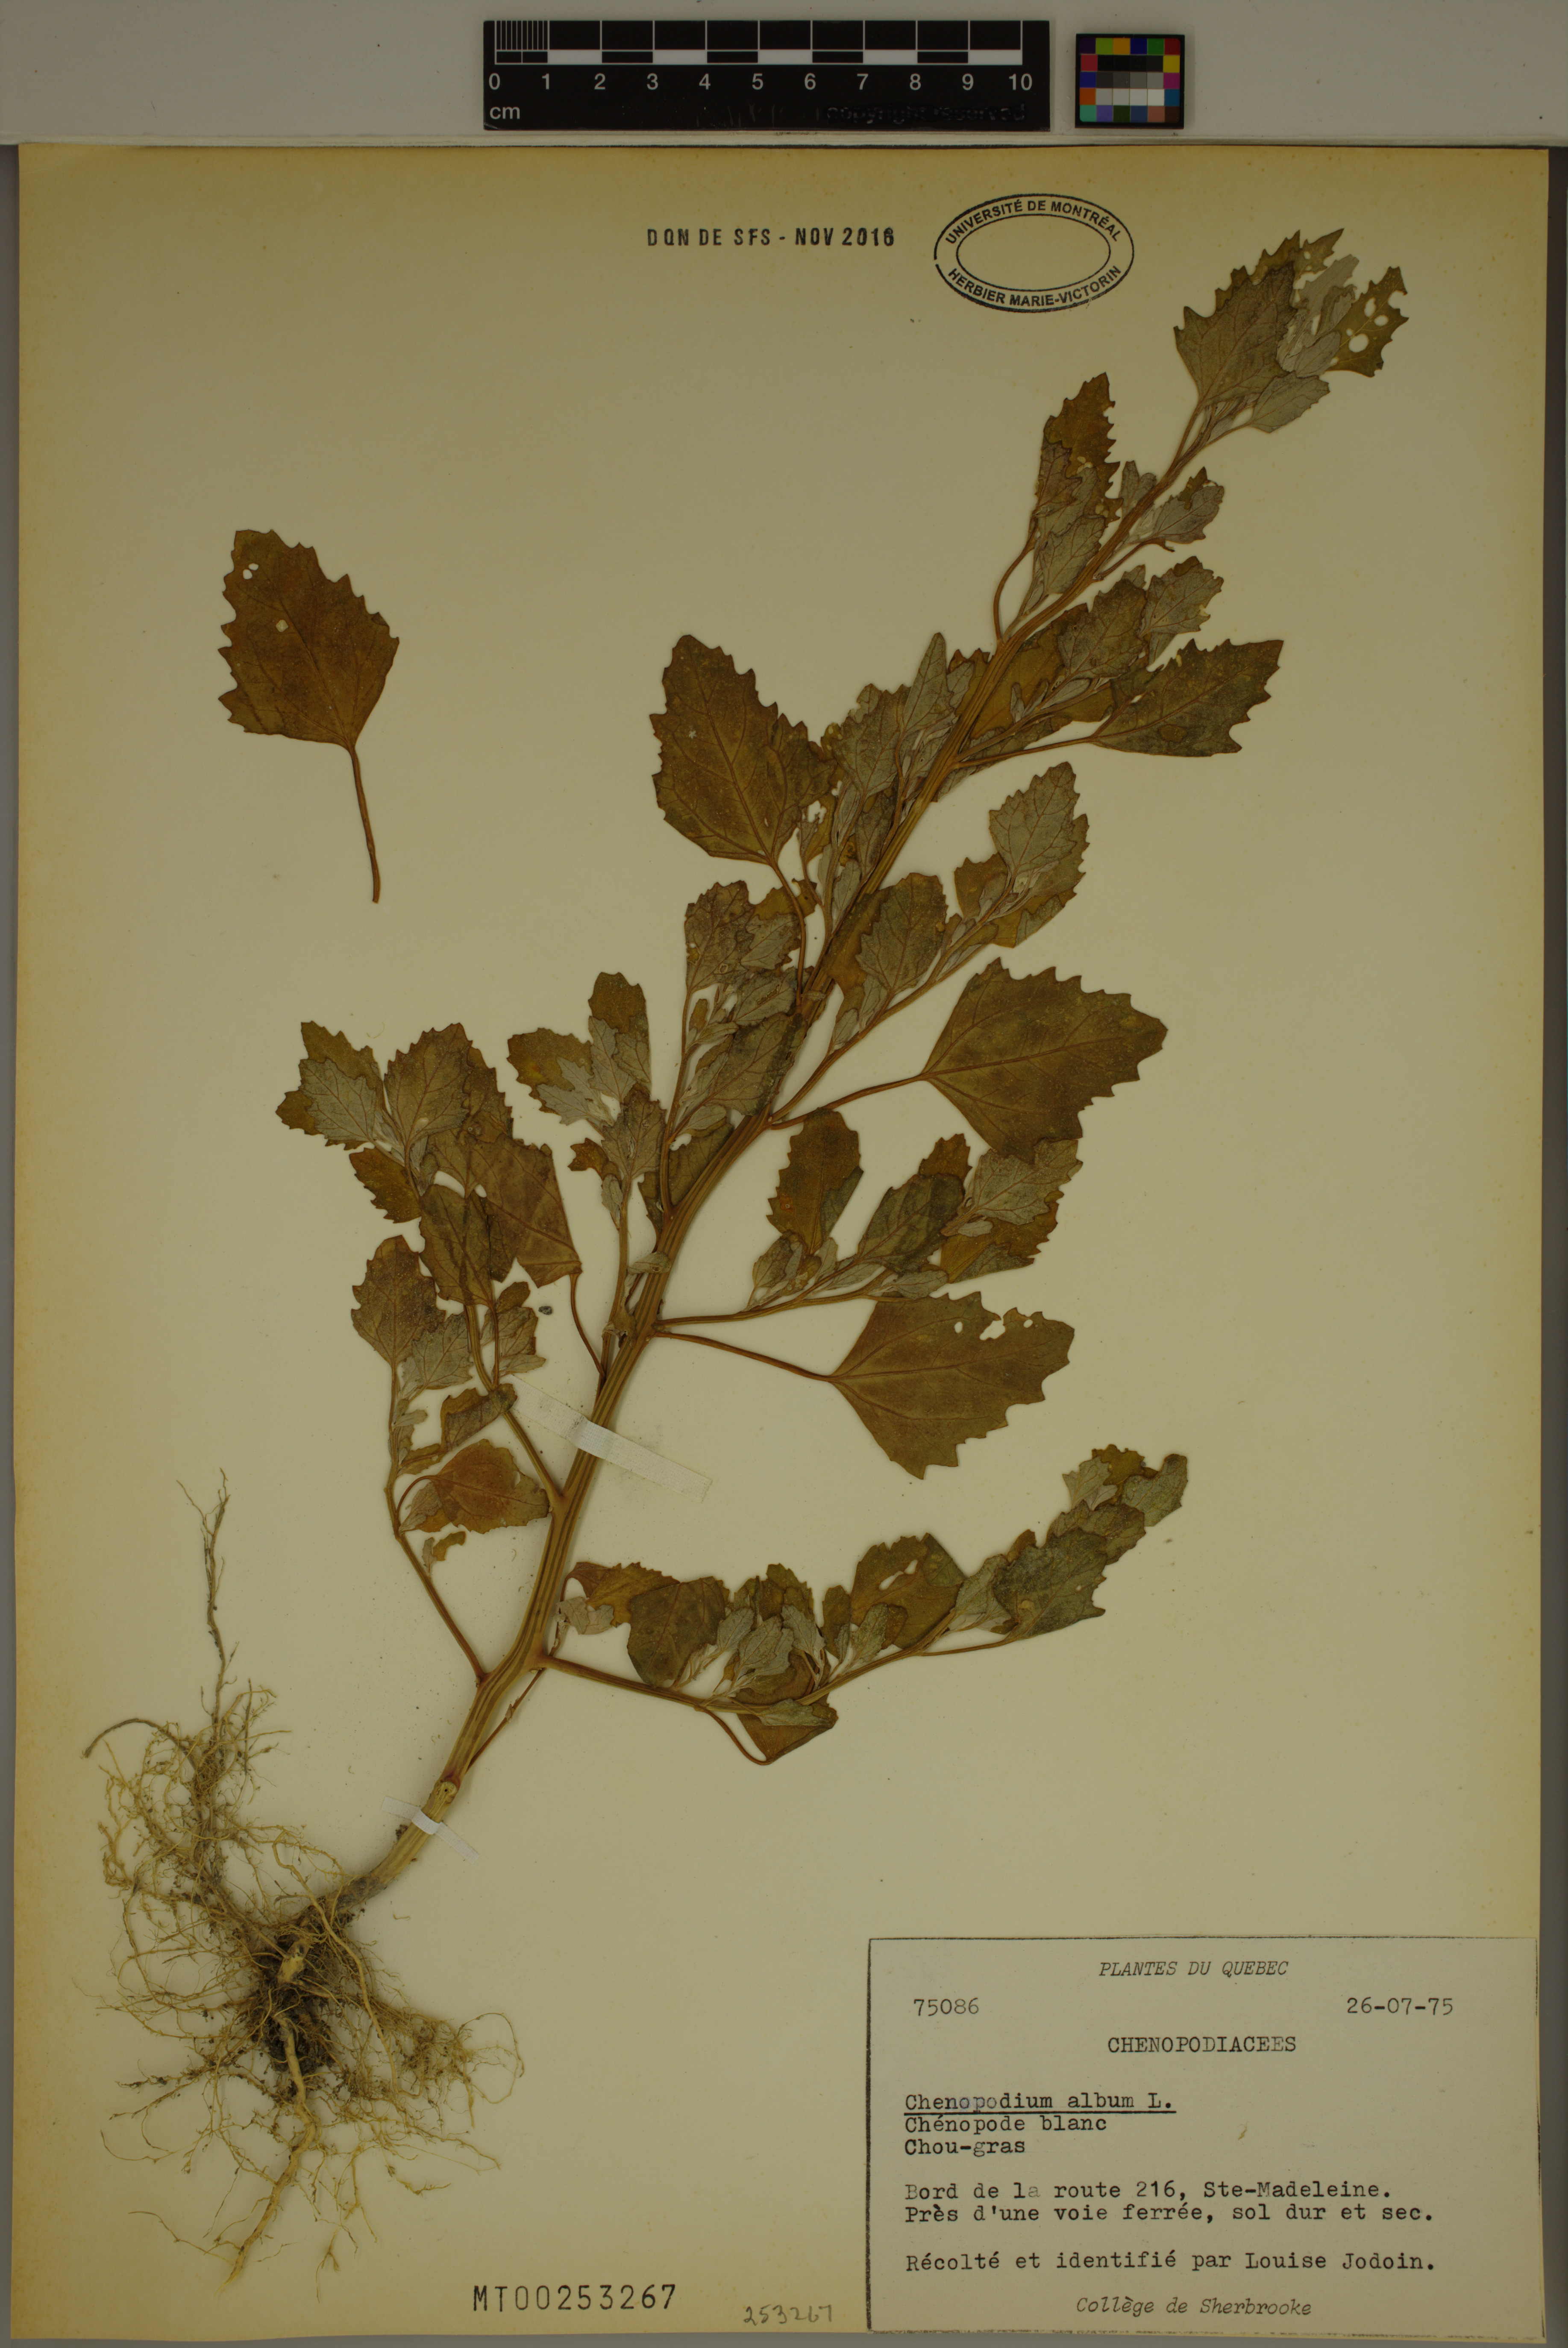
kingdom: Plantae
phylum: Tracheophyta
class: Magnoliopsida
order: Caryophyllales
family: Amaranthaceae
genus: Chenopodium
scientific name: Chenopodium album
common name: Fat-hen
